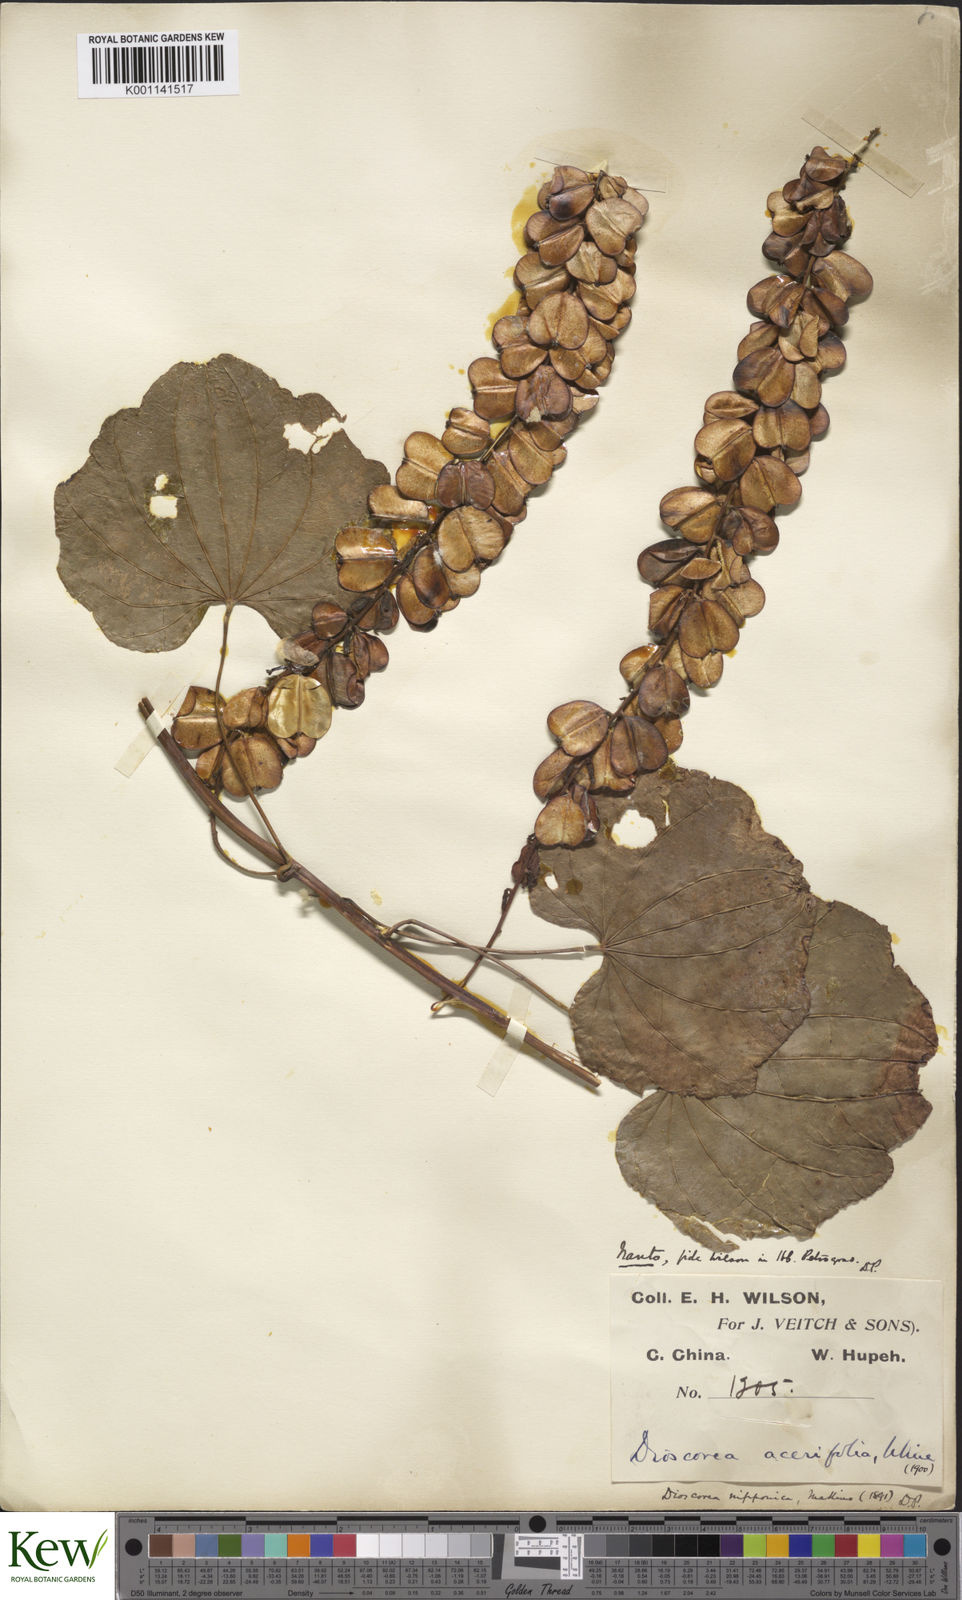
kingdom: Plantae
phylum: Tracheophyta
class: Liliopsida
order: Dioscoreales
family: Dioscoreaceae
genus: Dioscorea
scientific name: Dioscorea nipponica
